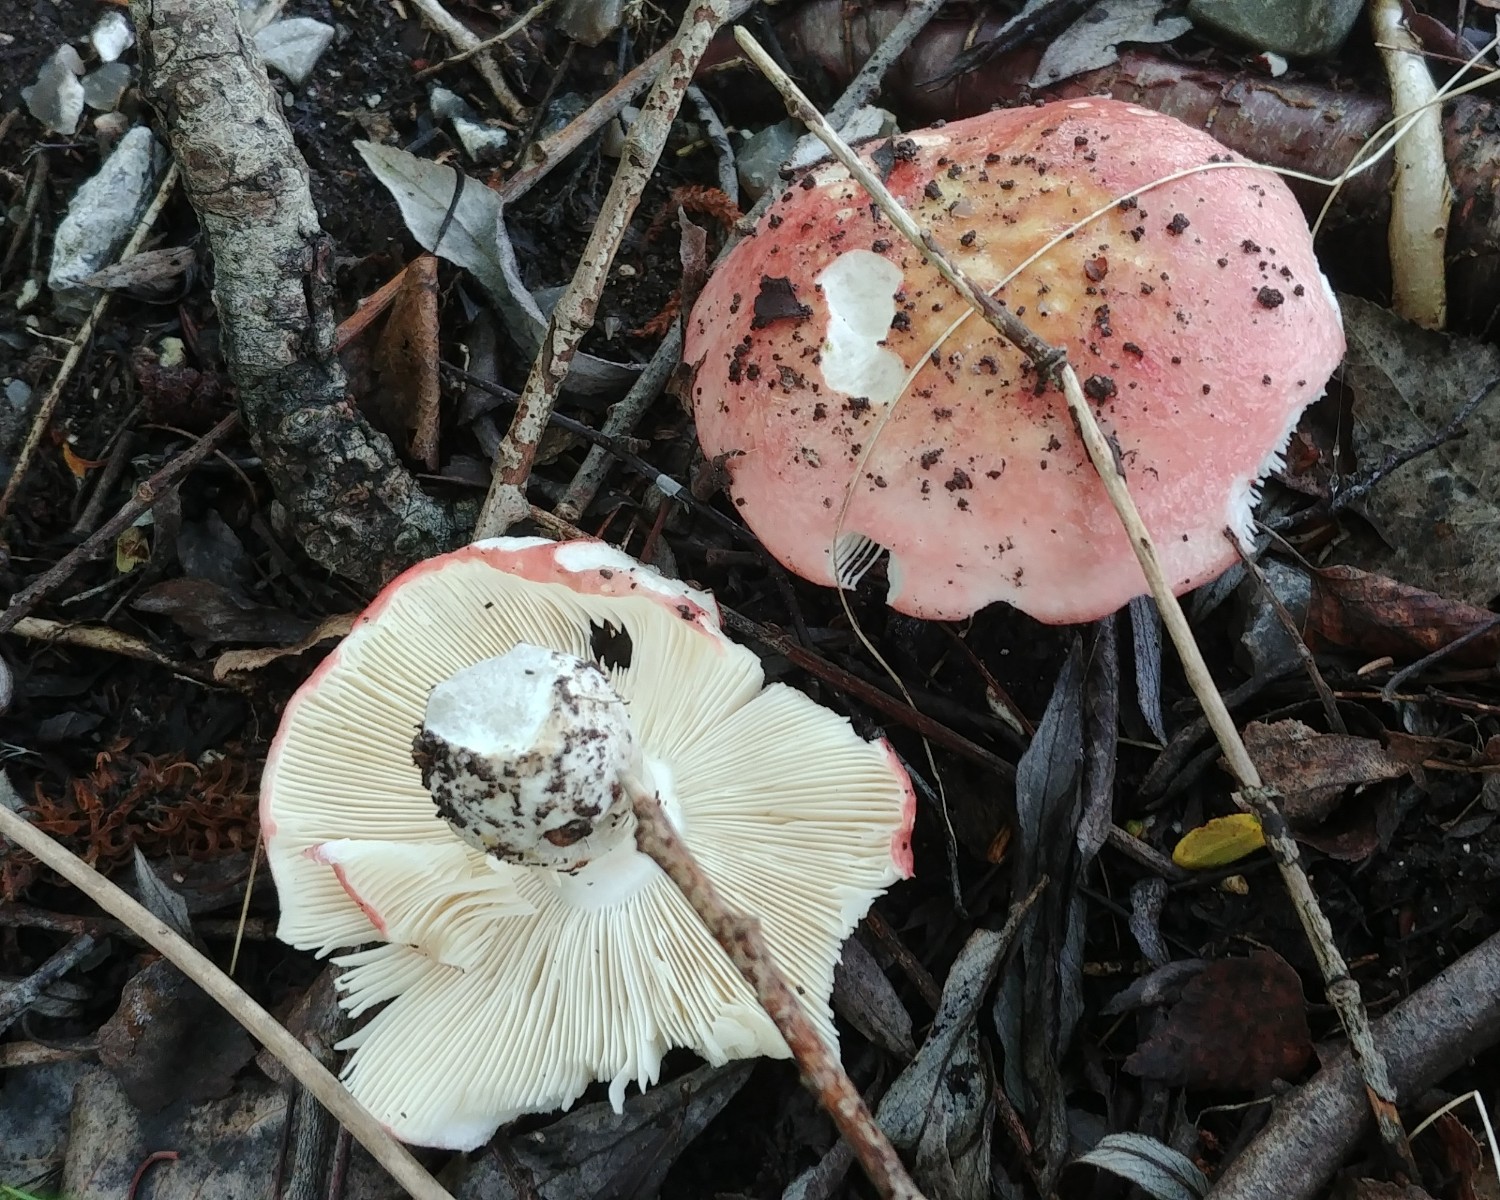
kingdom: Fungi
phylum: Basidiomycota
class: Agaricomycetes
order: Russulales
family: Russulaceae
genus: Russula
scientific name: Russula depallens
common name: falmende skørhat
